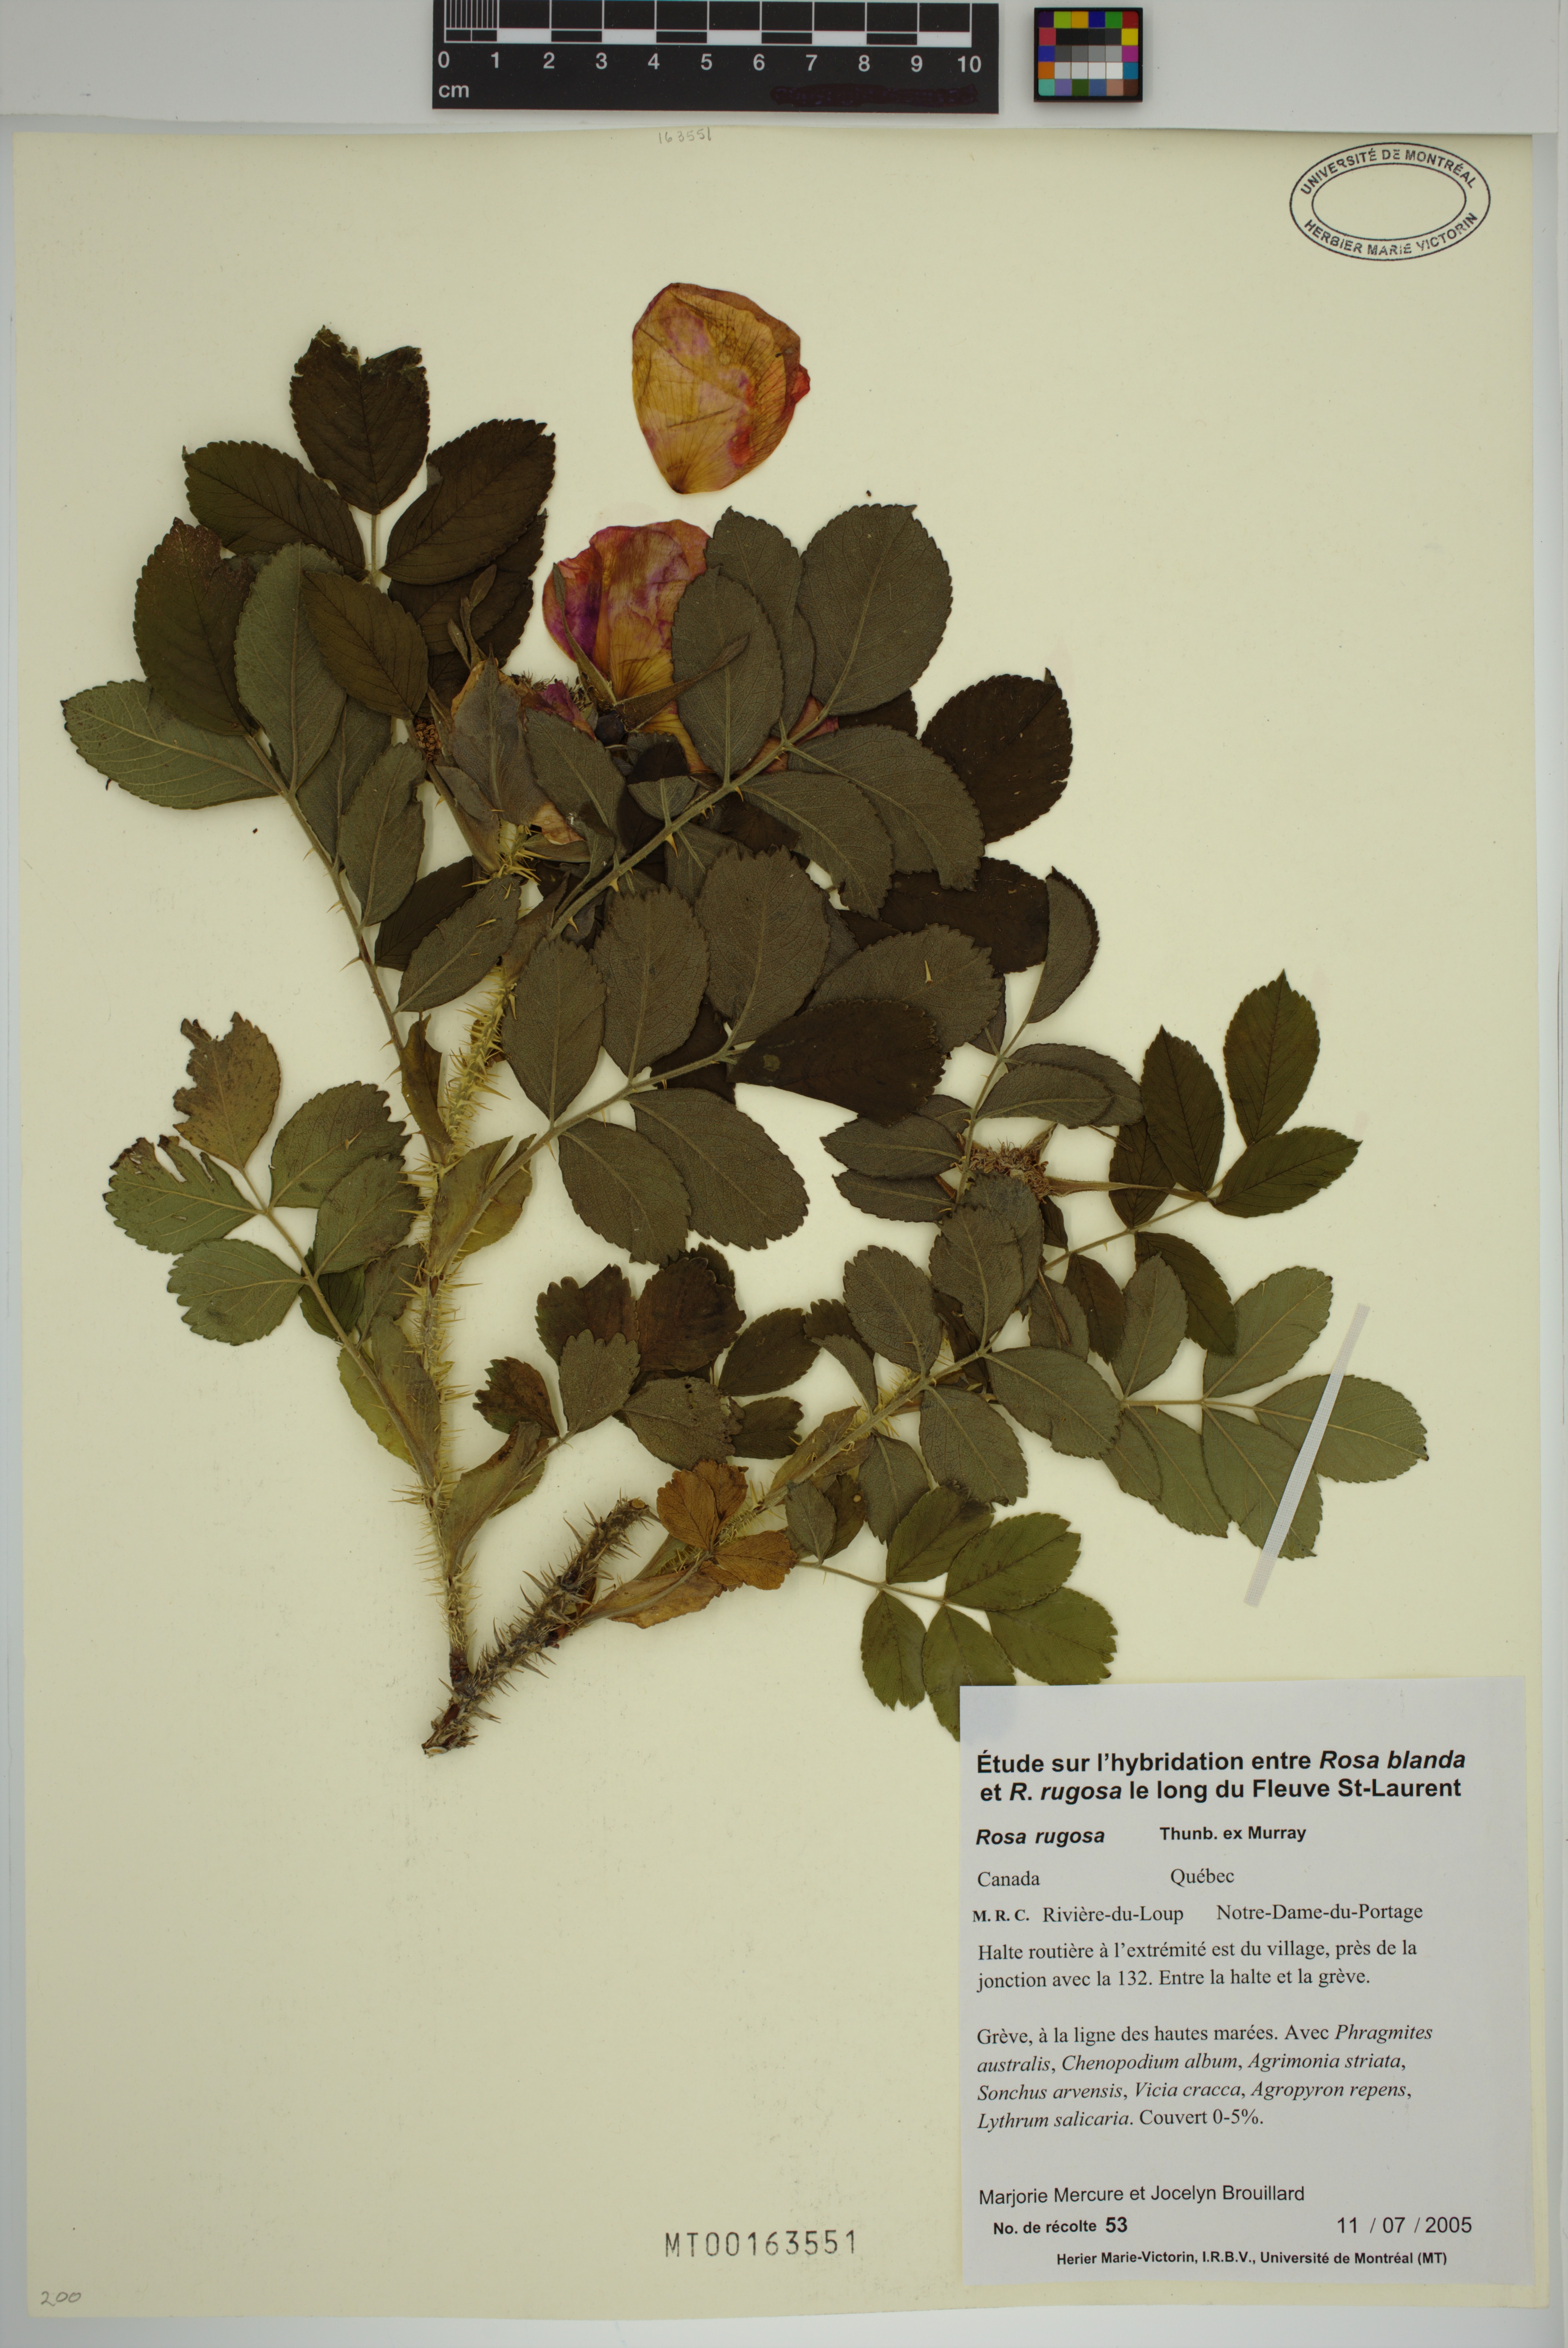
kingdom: Plantae
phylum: Tracheophyta
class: Magnoliopsida
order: Rosales
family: Rosaceae
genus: Rosa
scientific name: Rosa rugosa
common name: Japanese rose
